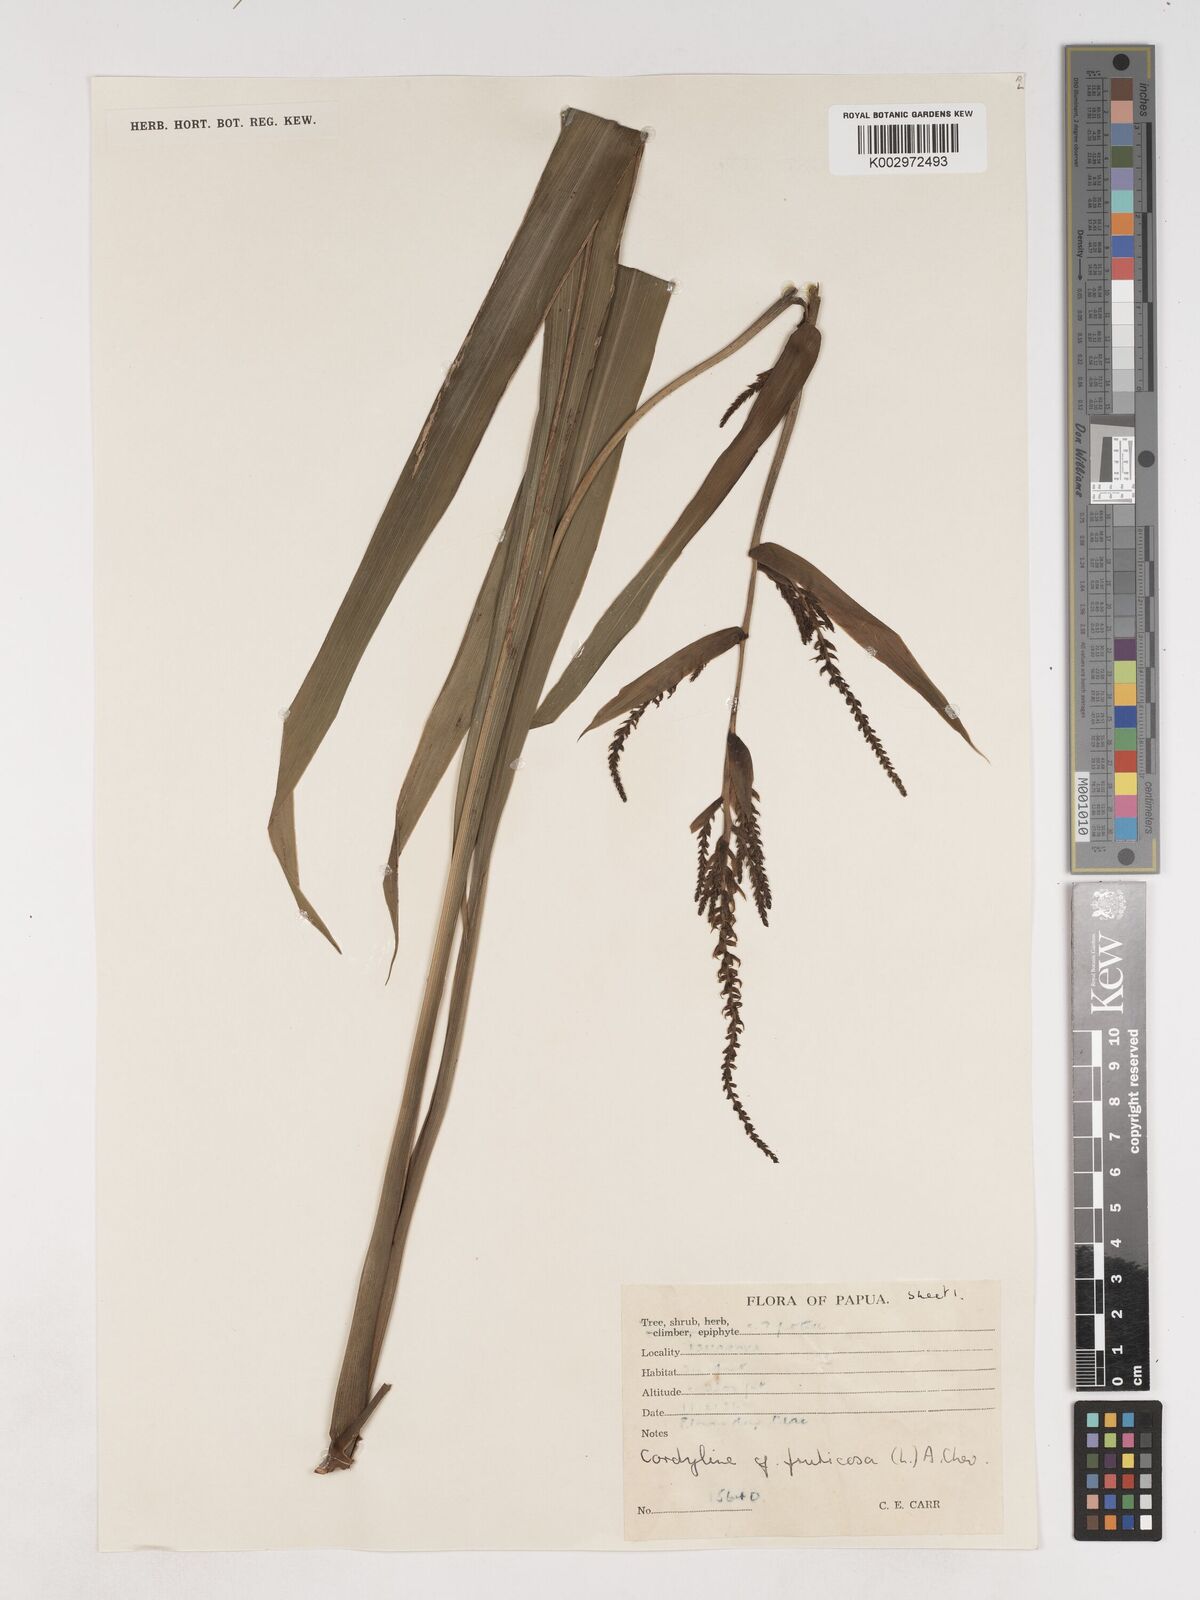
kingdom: Plantae
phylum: Tracheophyta
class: Liliopsida
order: Asparagales
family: Asparagaceae
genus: Cordyline
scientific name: Cordyline fruticosa
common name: Good-luck-plant
